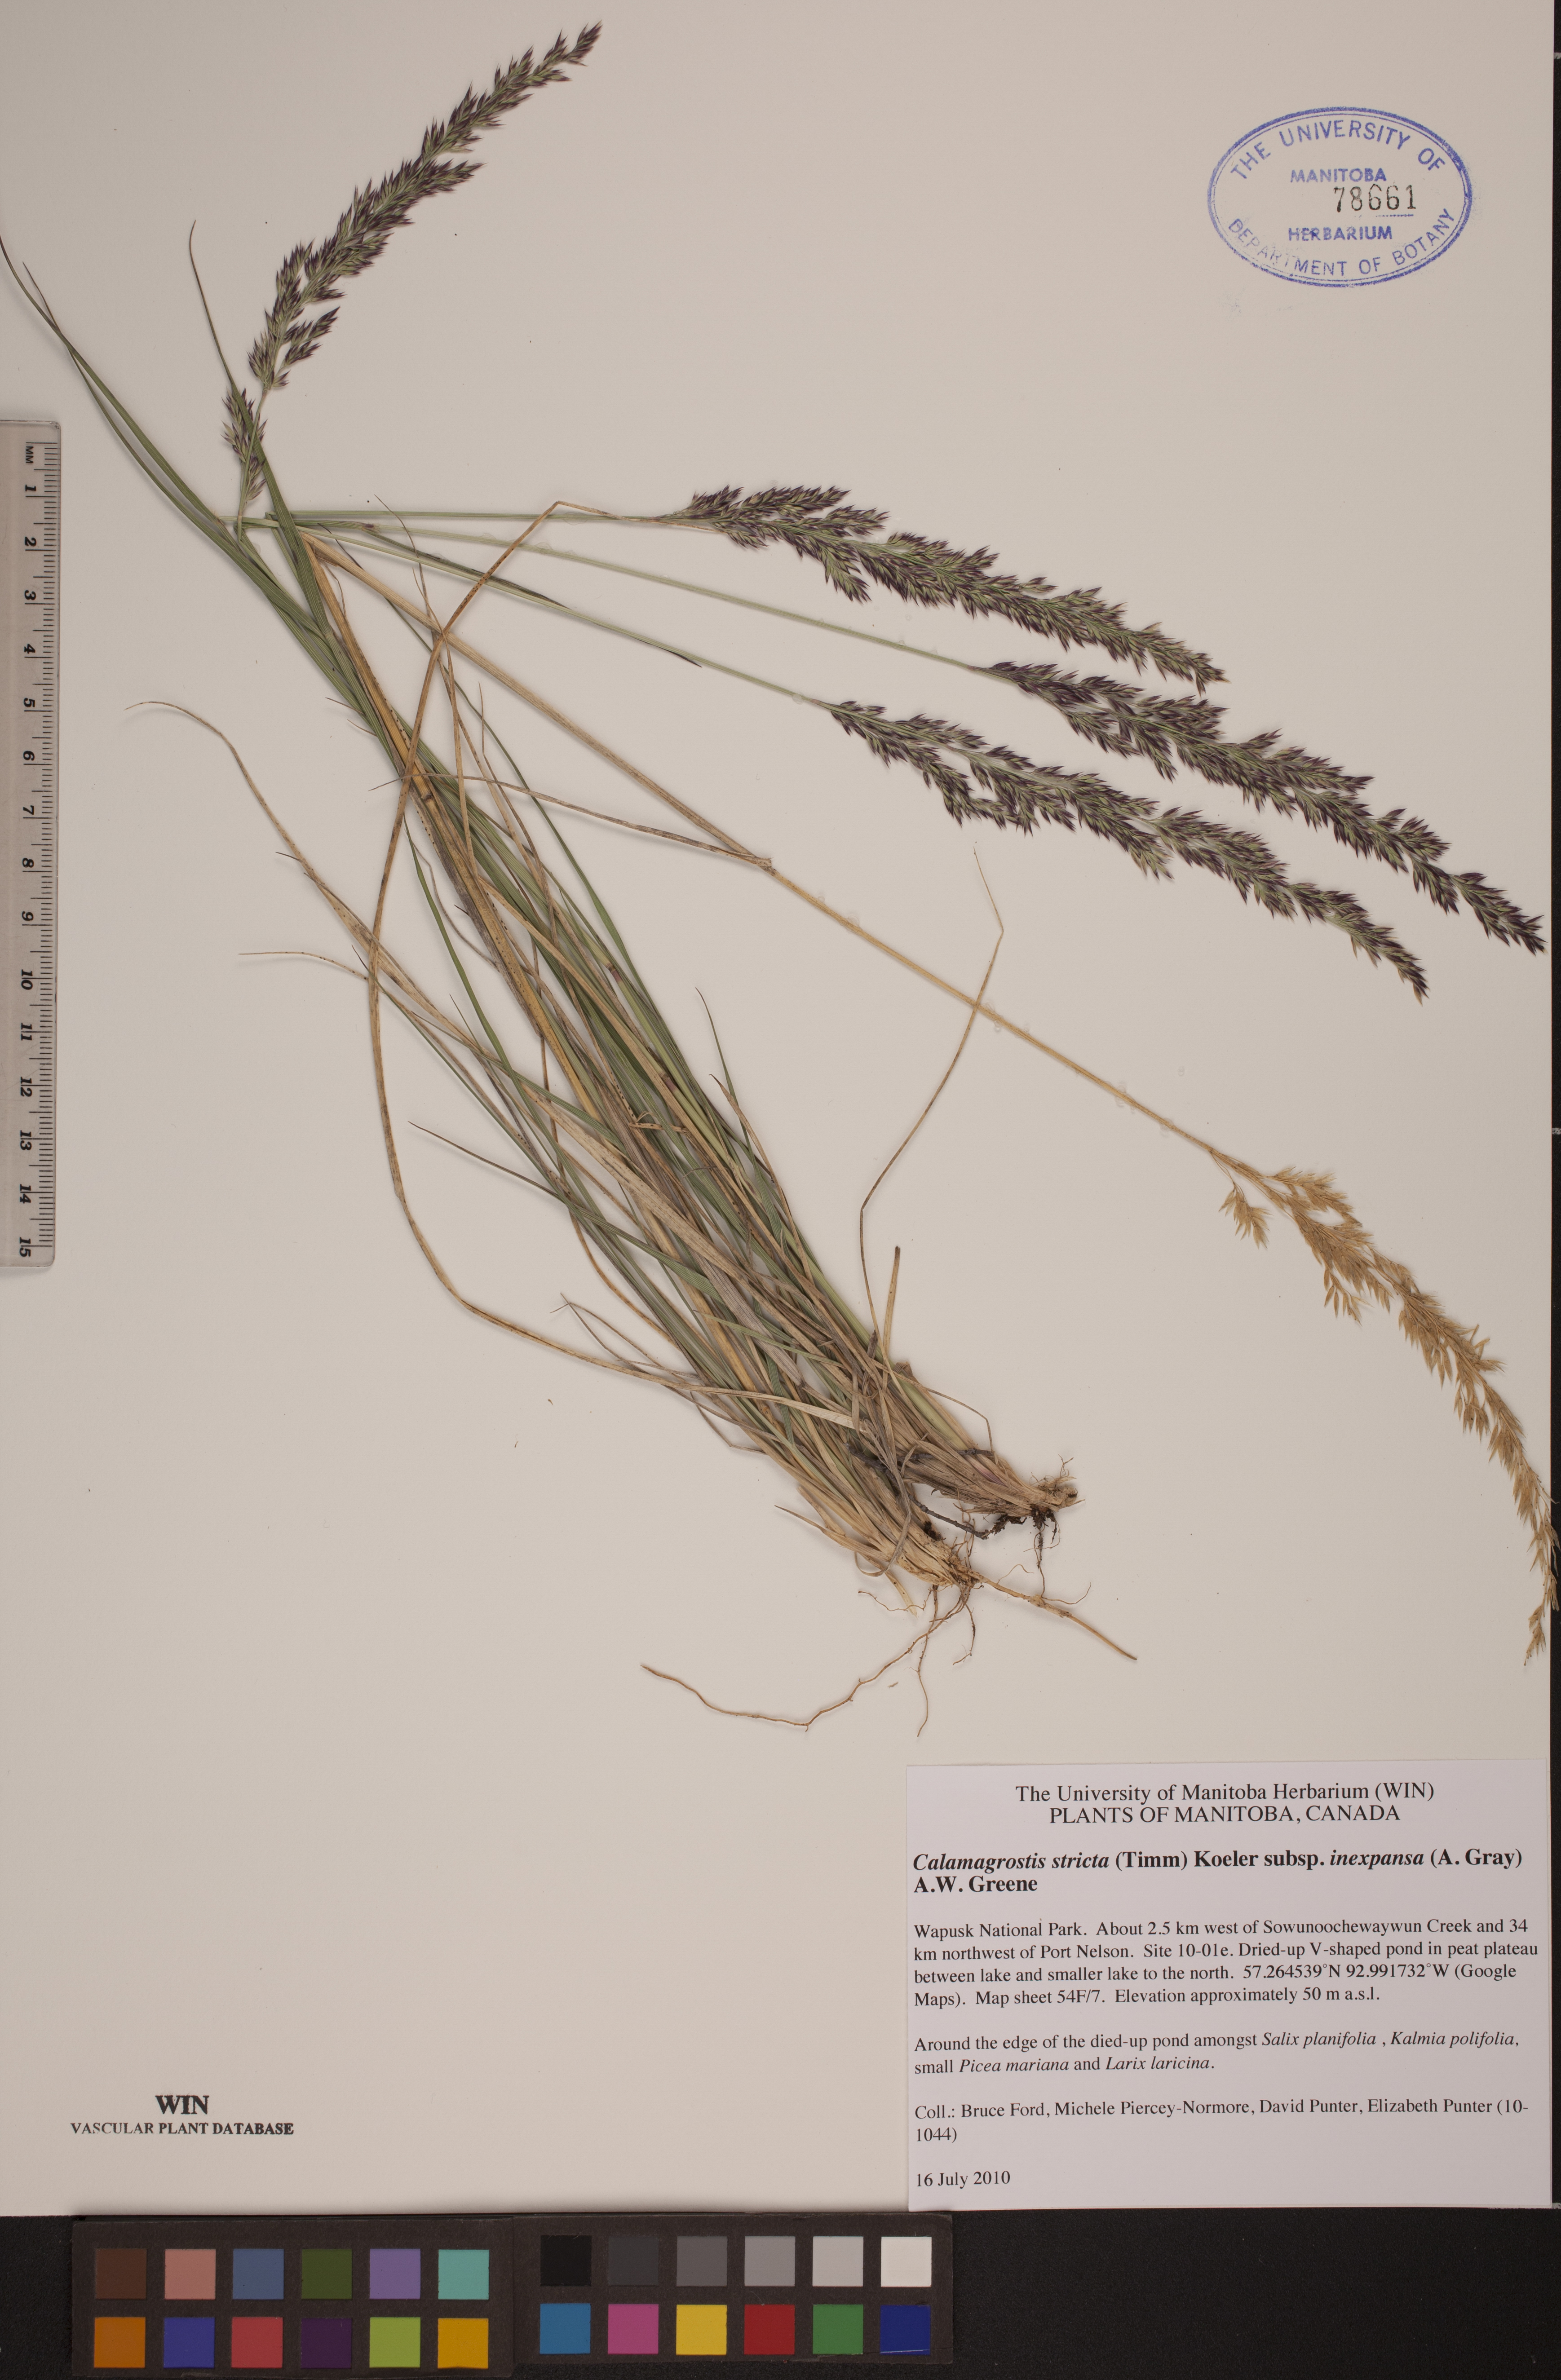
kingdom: Plantae
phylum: Tracheophyta
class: Liliopsida
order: Poales
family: Poaceae
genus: Calamagrostis
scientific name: Calamagrostis lapponica
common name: Lapland reedgrass
